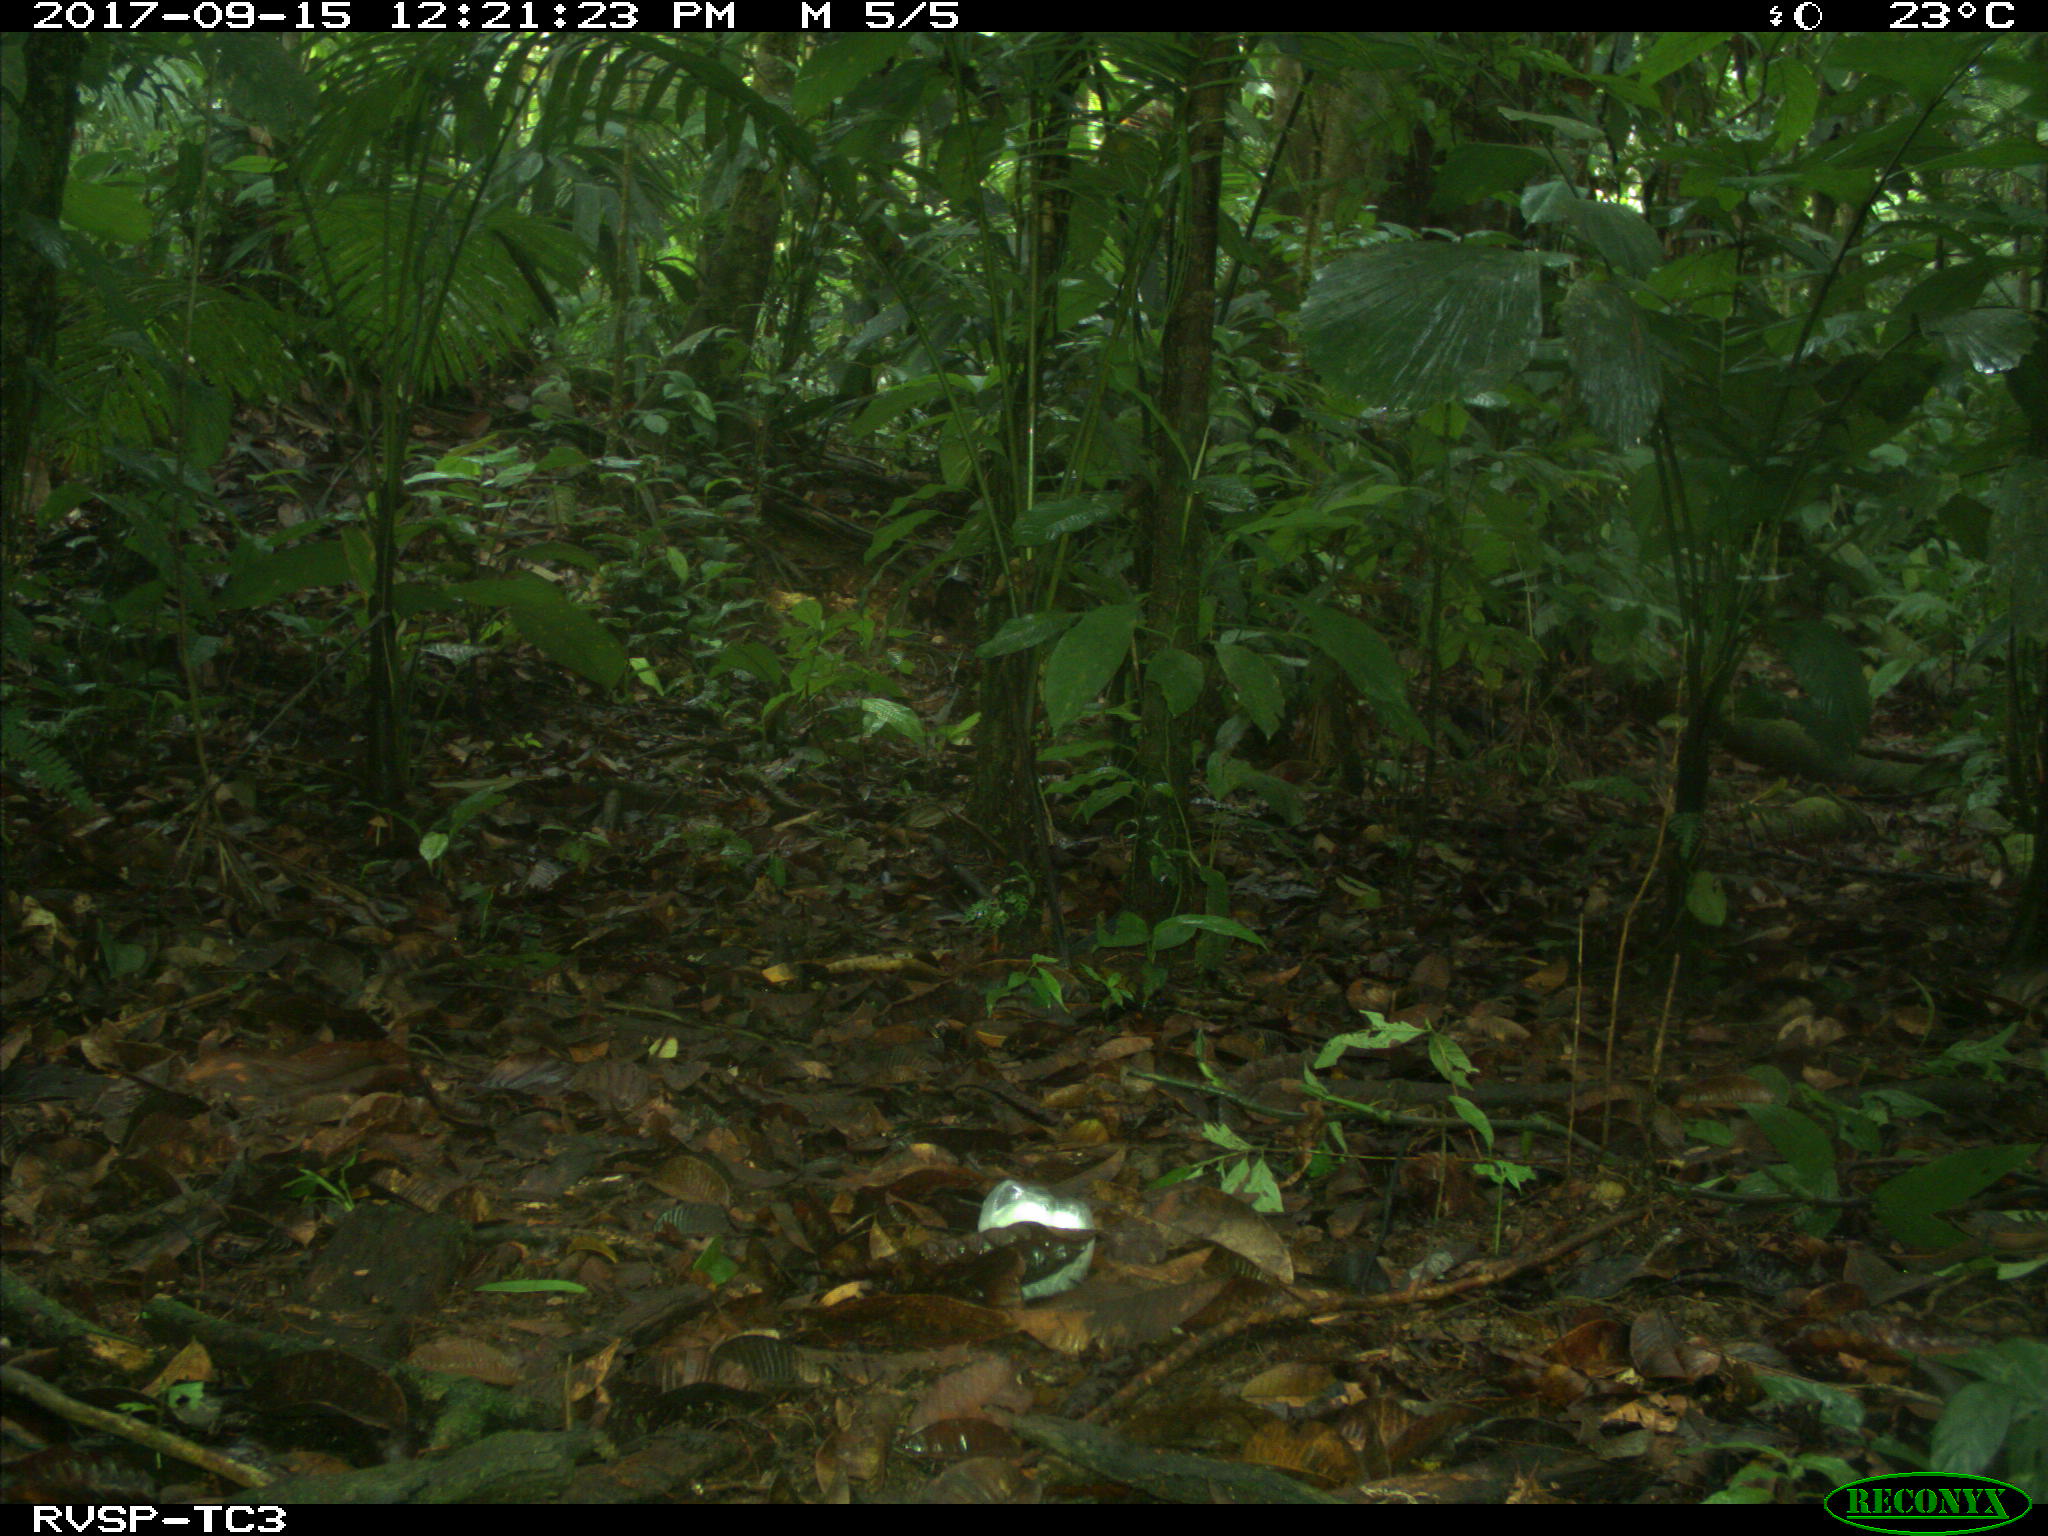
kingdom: Animalia
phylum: Chordata
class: Mammalia
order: Carnivora
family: Mustelidae
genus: Eira
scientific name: Eira barbara
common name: Tayra
